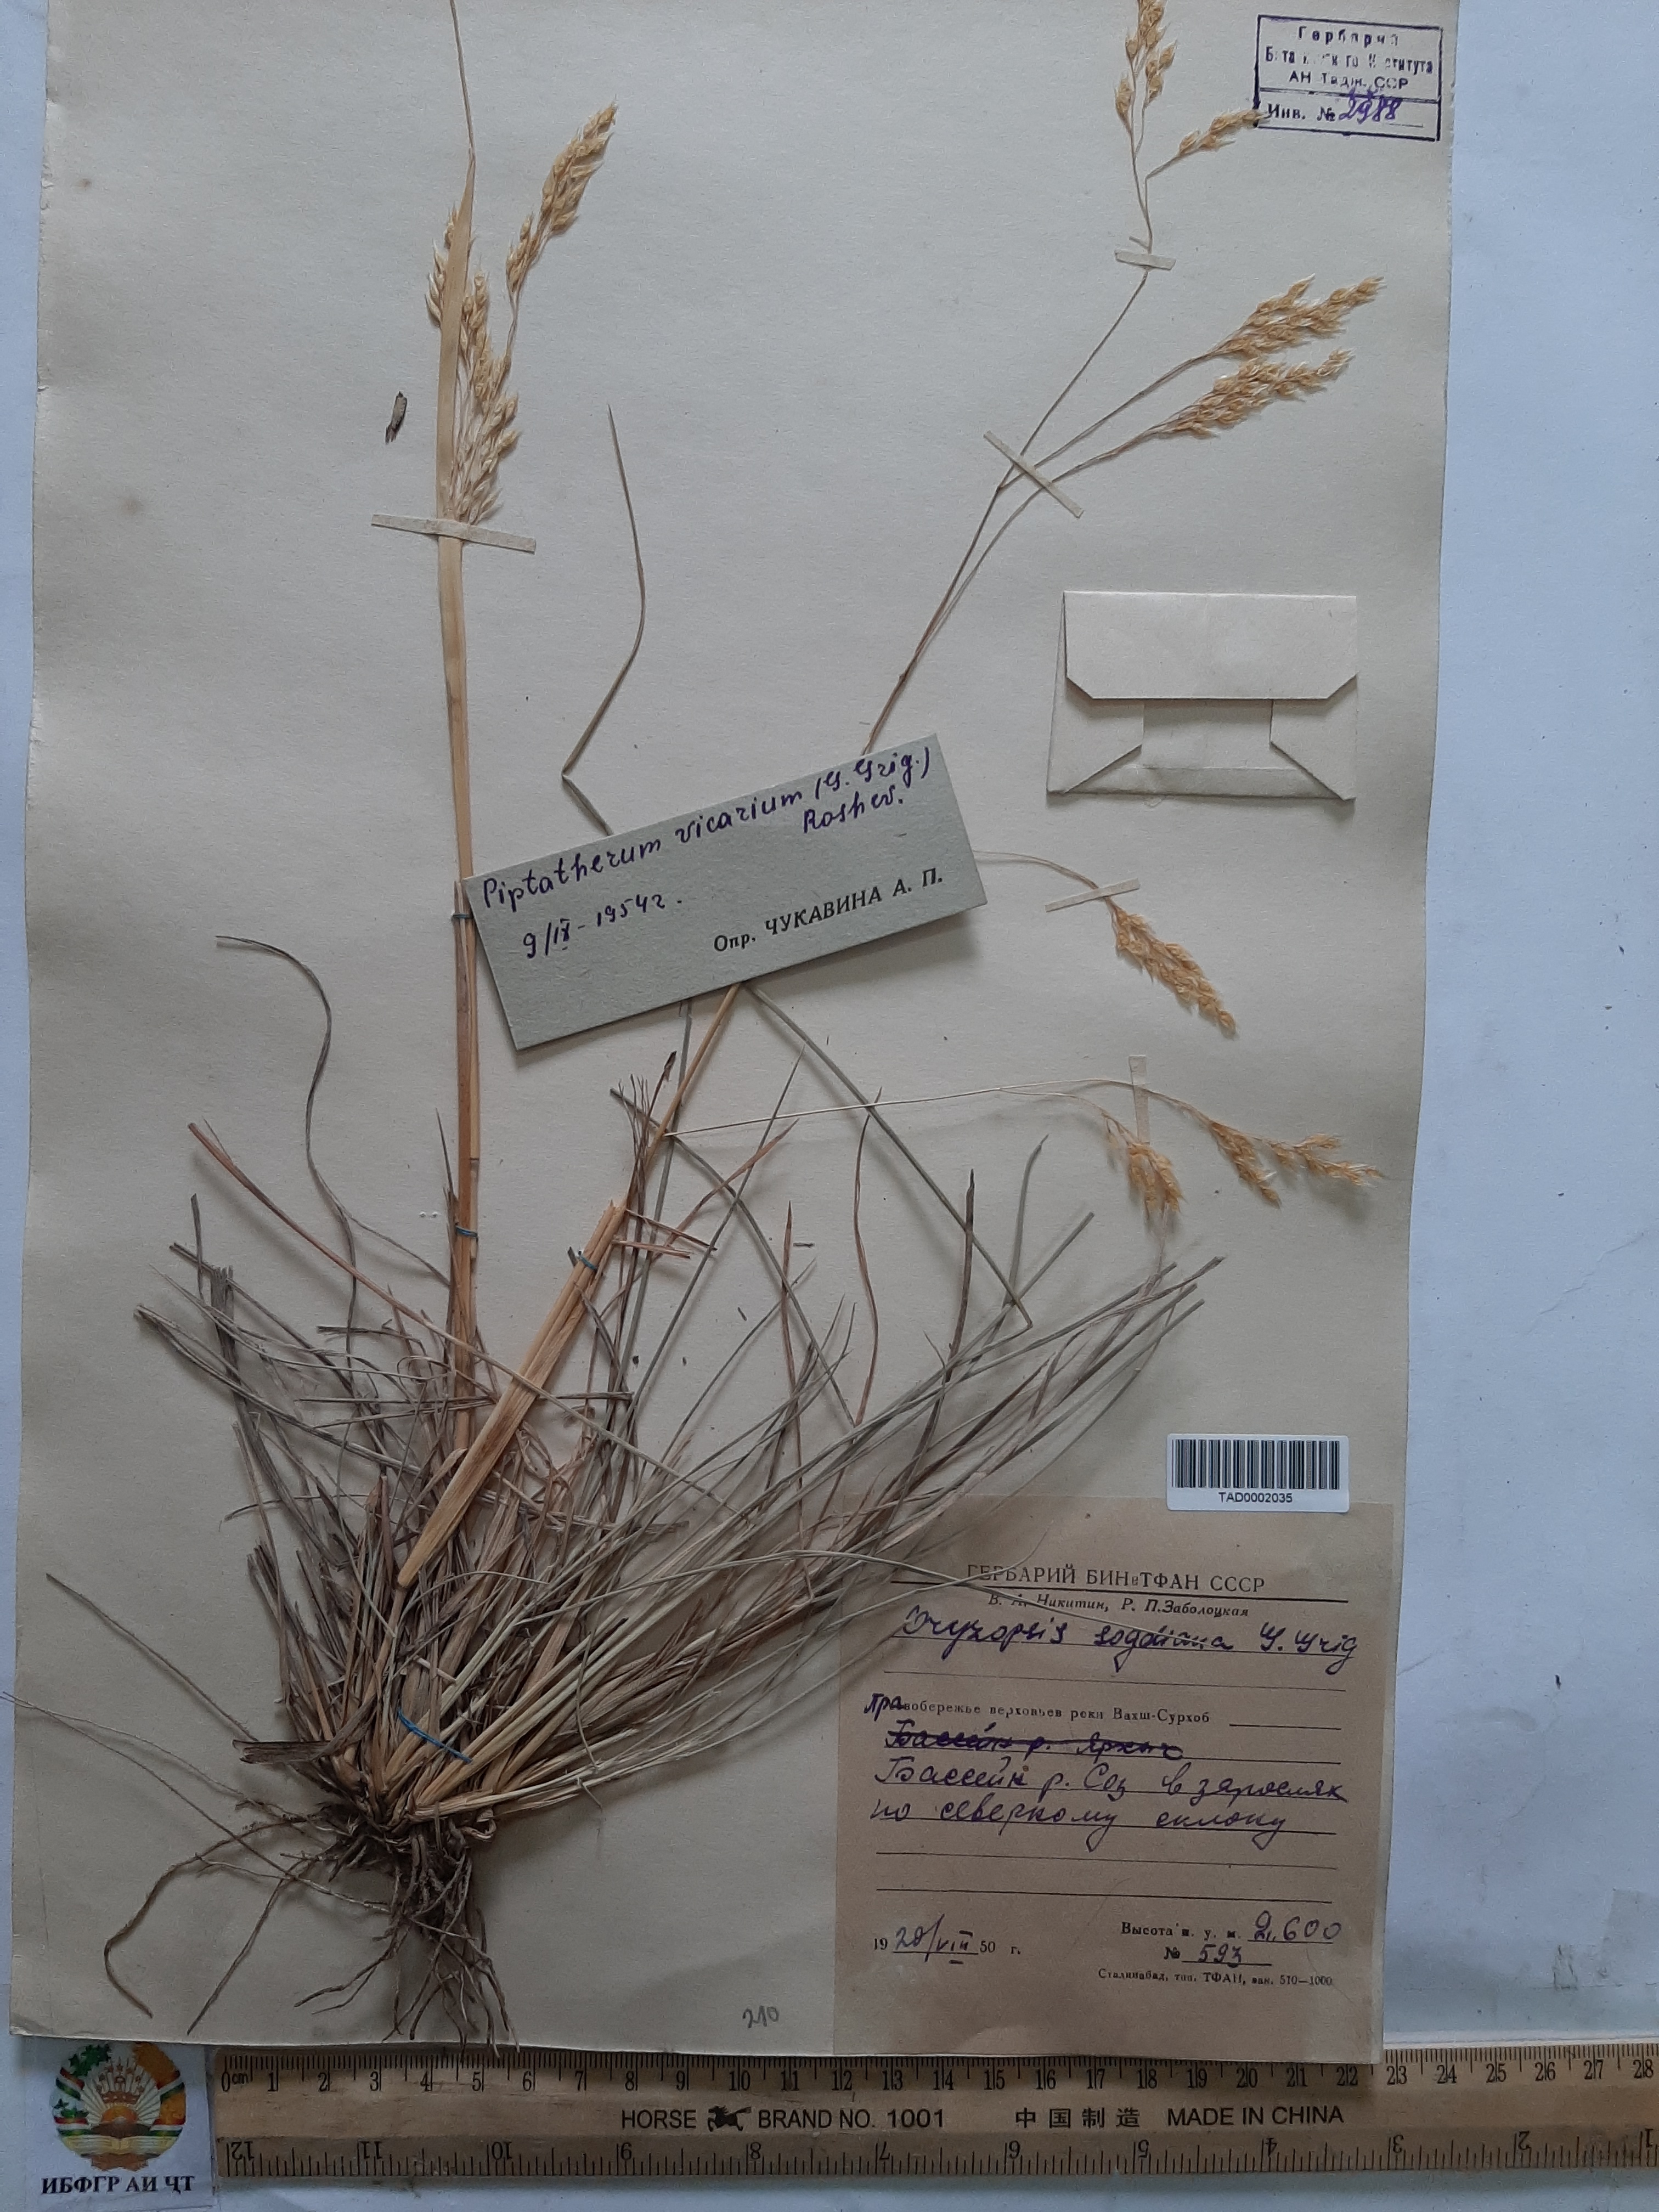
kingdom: Plantae
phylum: Tracheophyta
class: Liliopsida
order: Poales
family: Poaceae
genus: Piptatherum
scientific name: Piptatherum microcarpum
